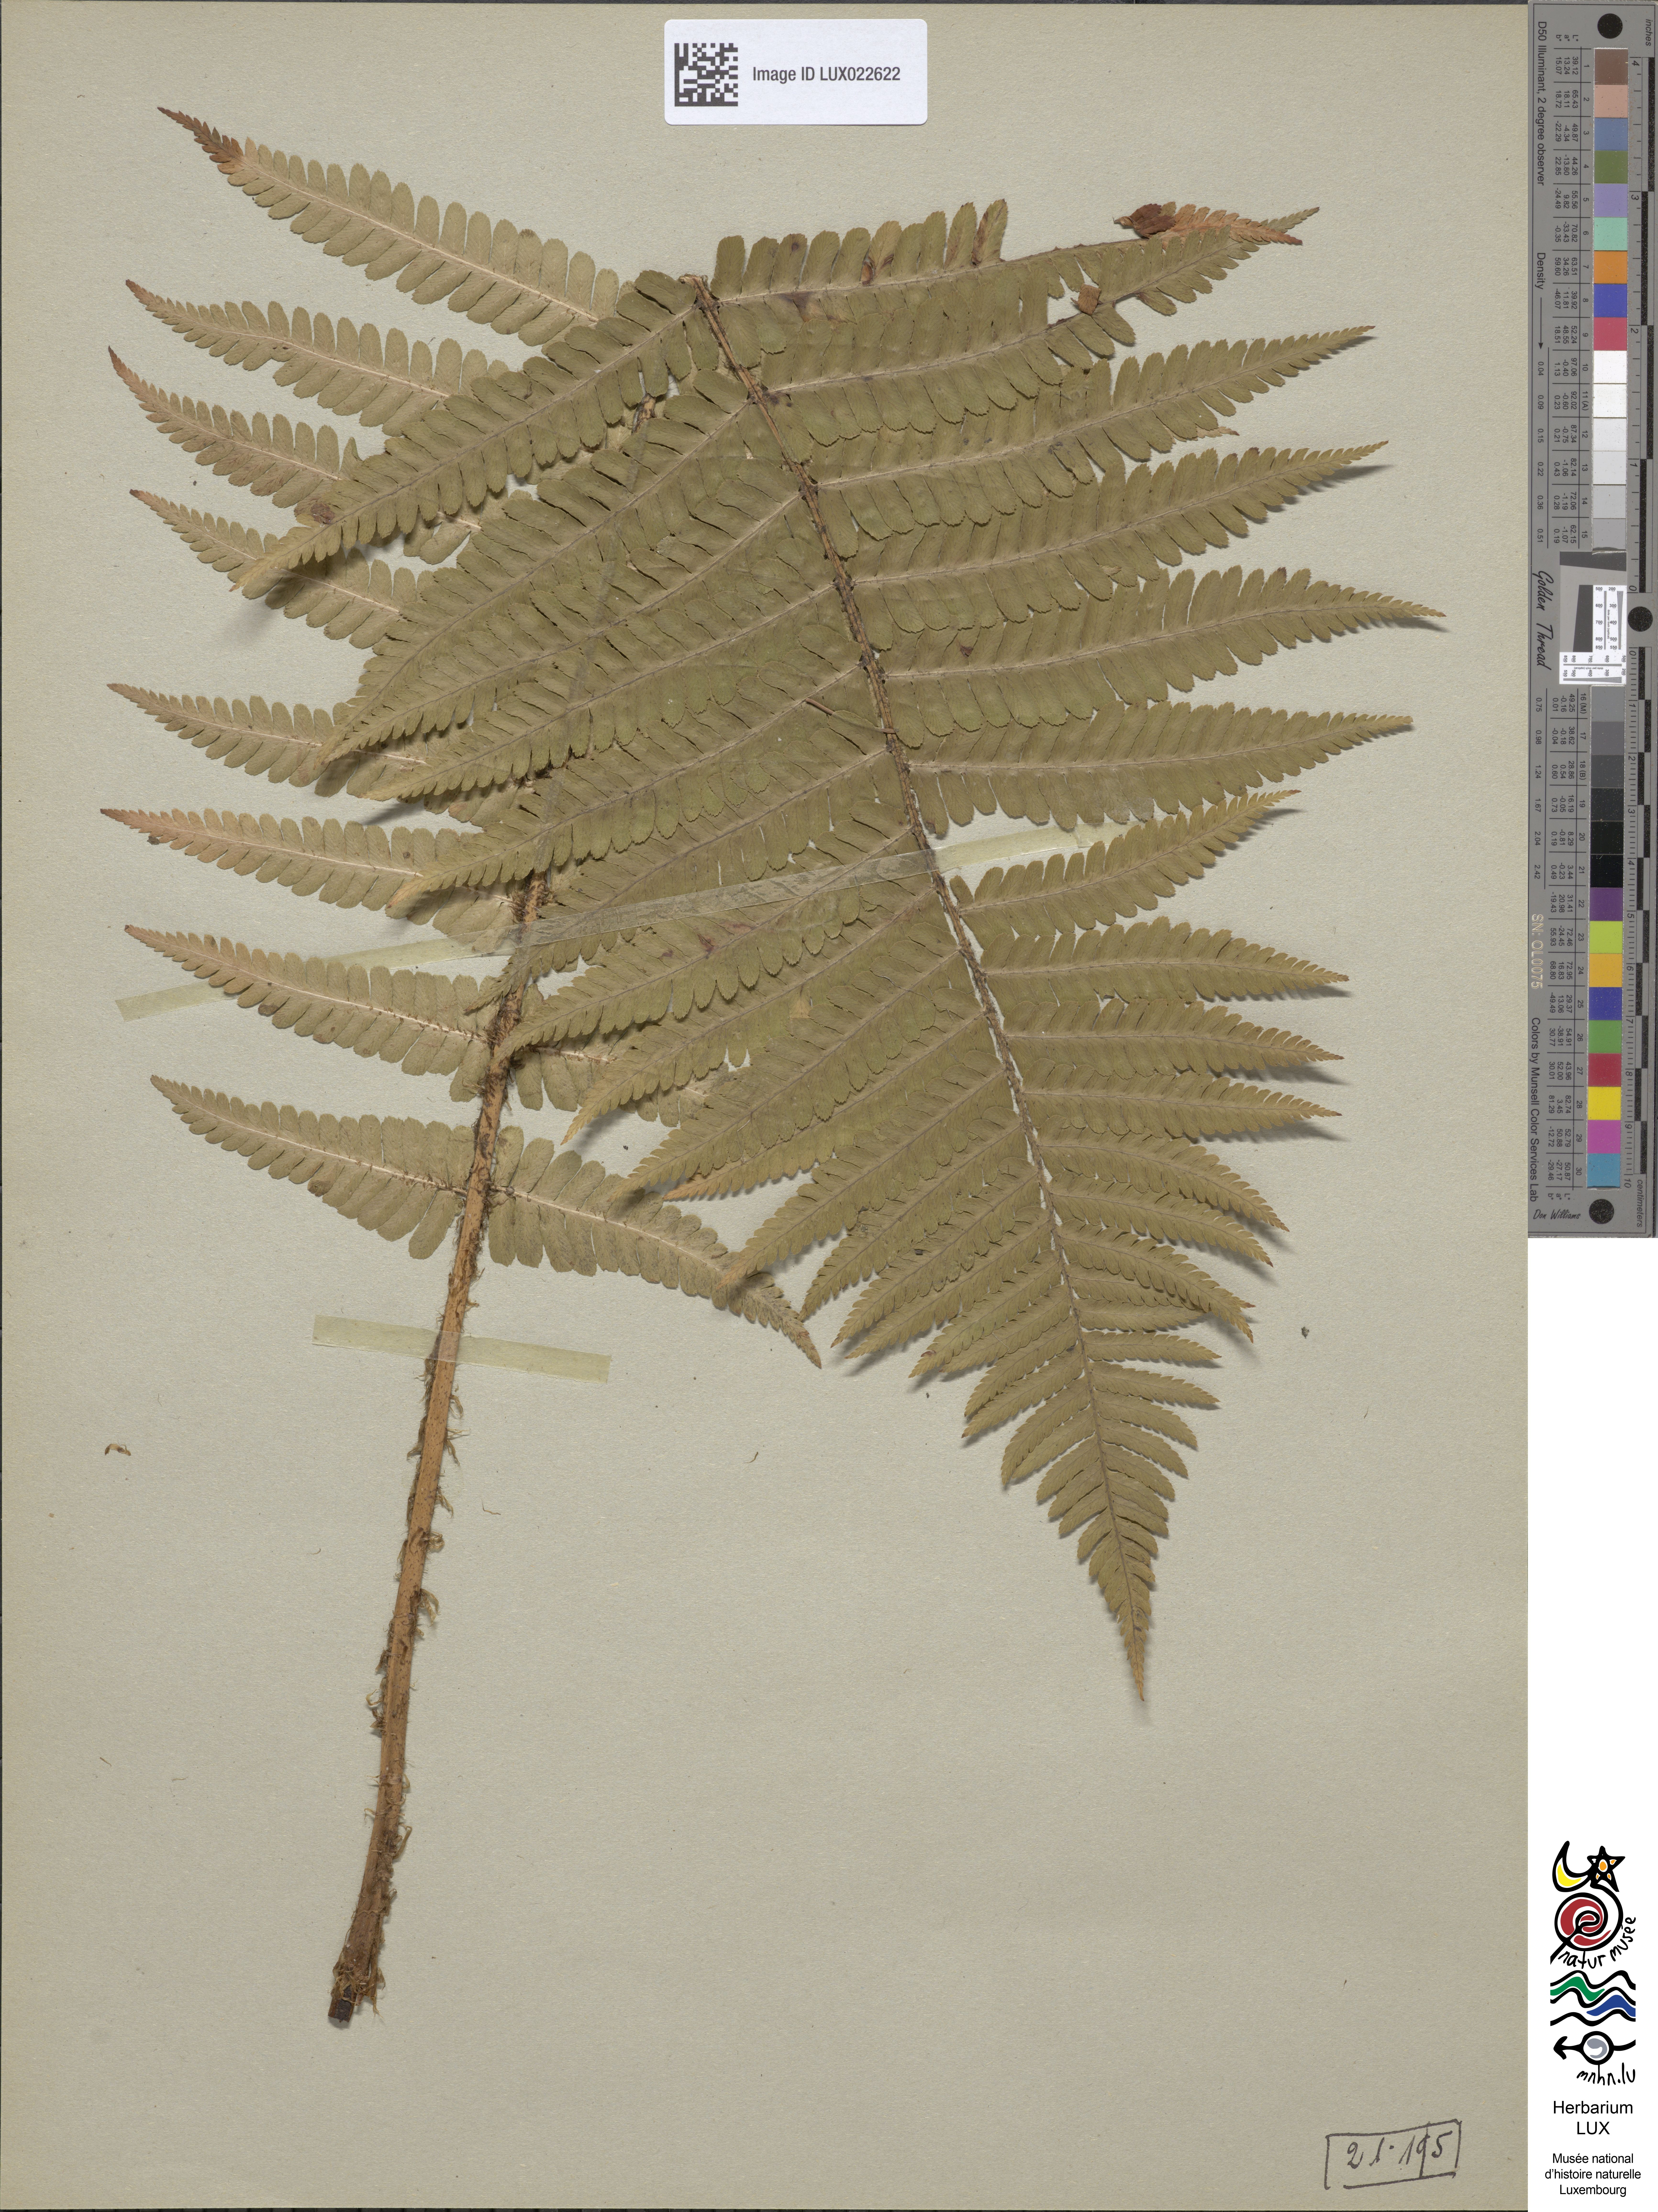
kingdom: Plantae
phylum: Tracheophyta
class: Polypodiopsida
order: Polypodiales
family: Dryopteridaceae
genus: Dryopteris
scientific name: Dryopteris borreri
